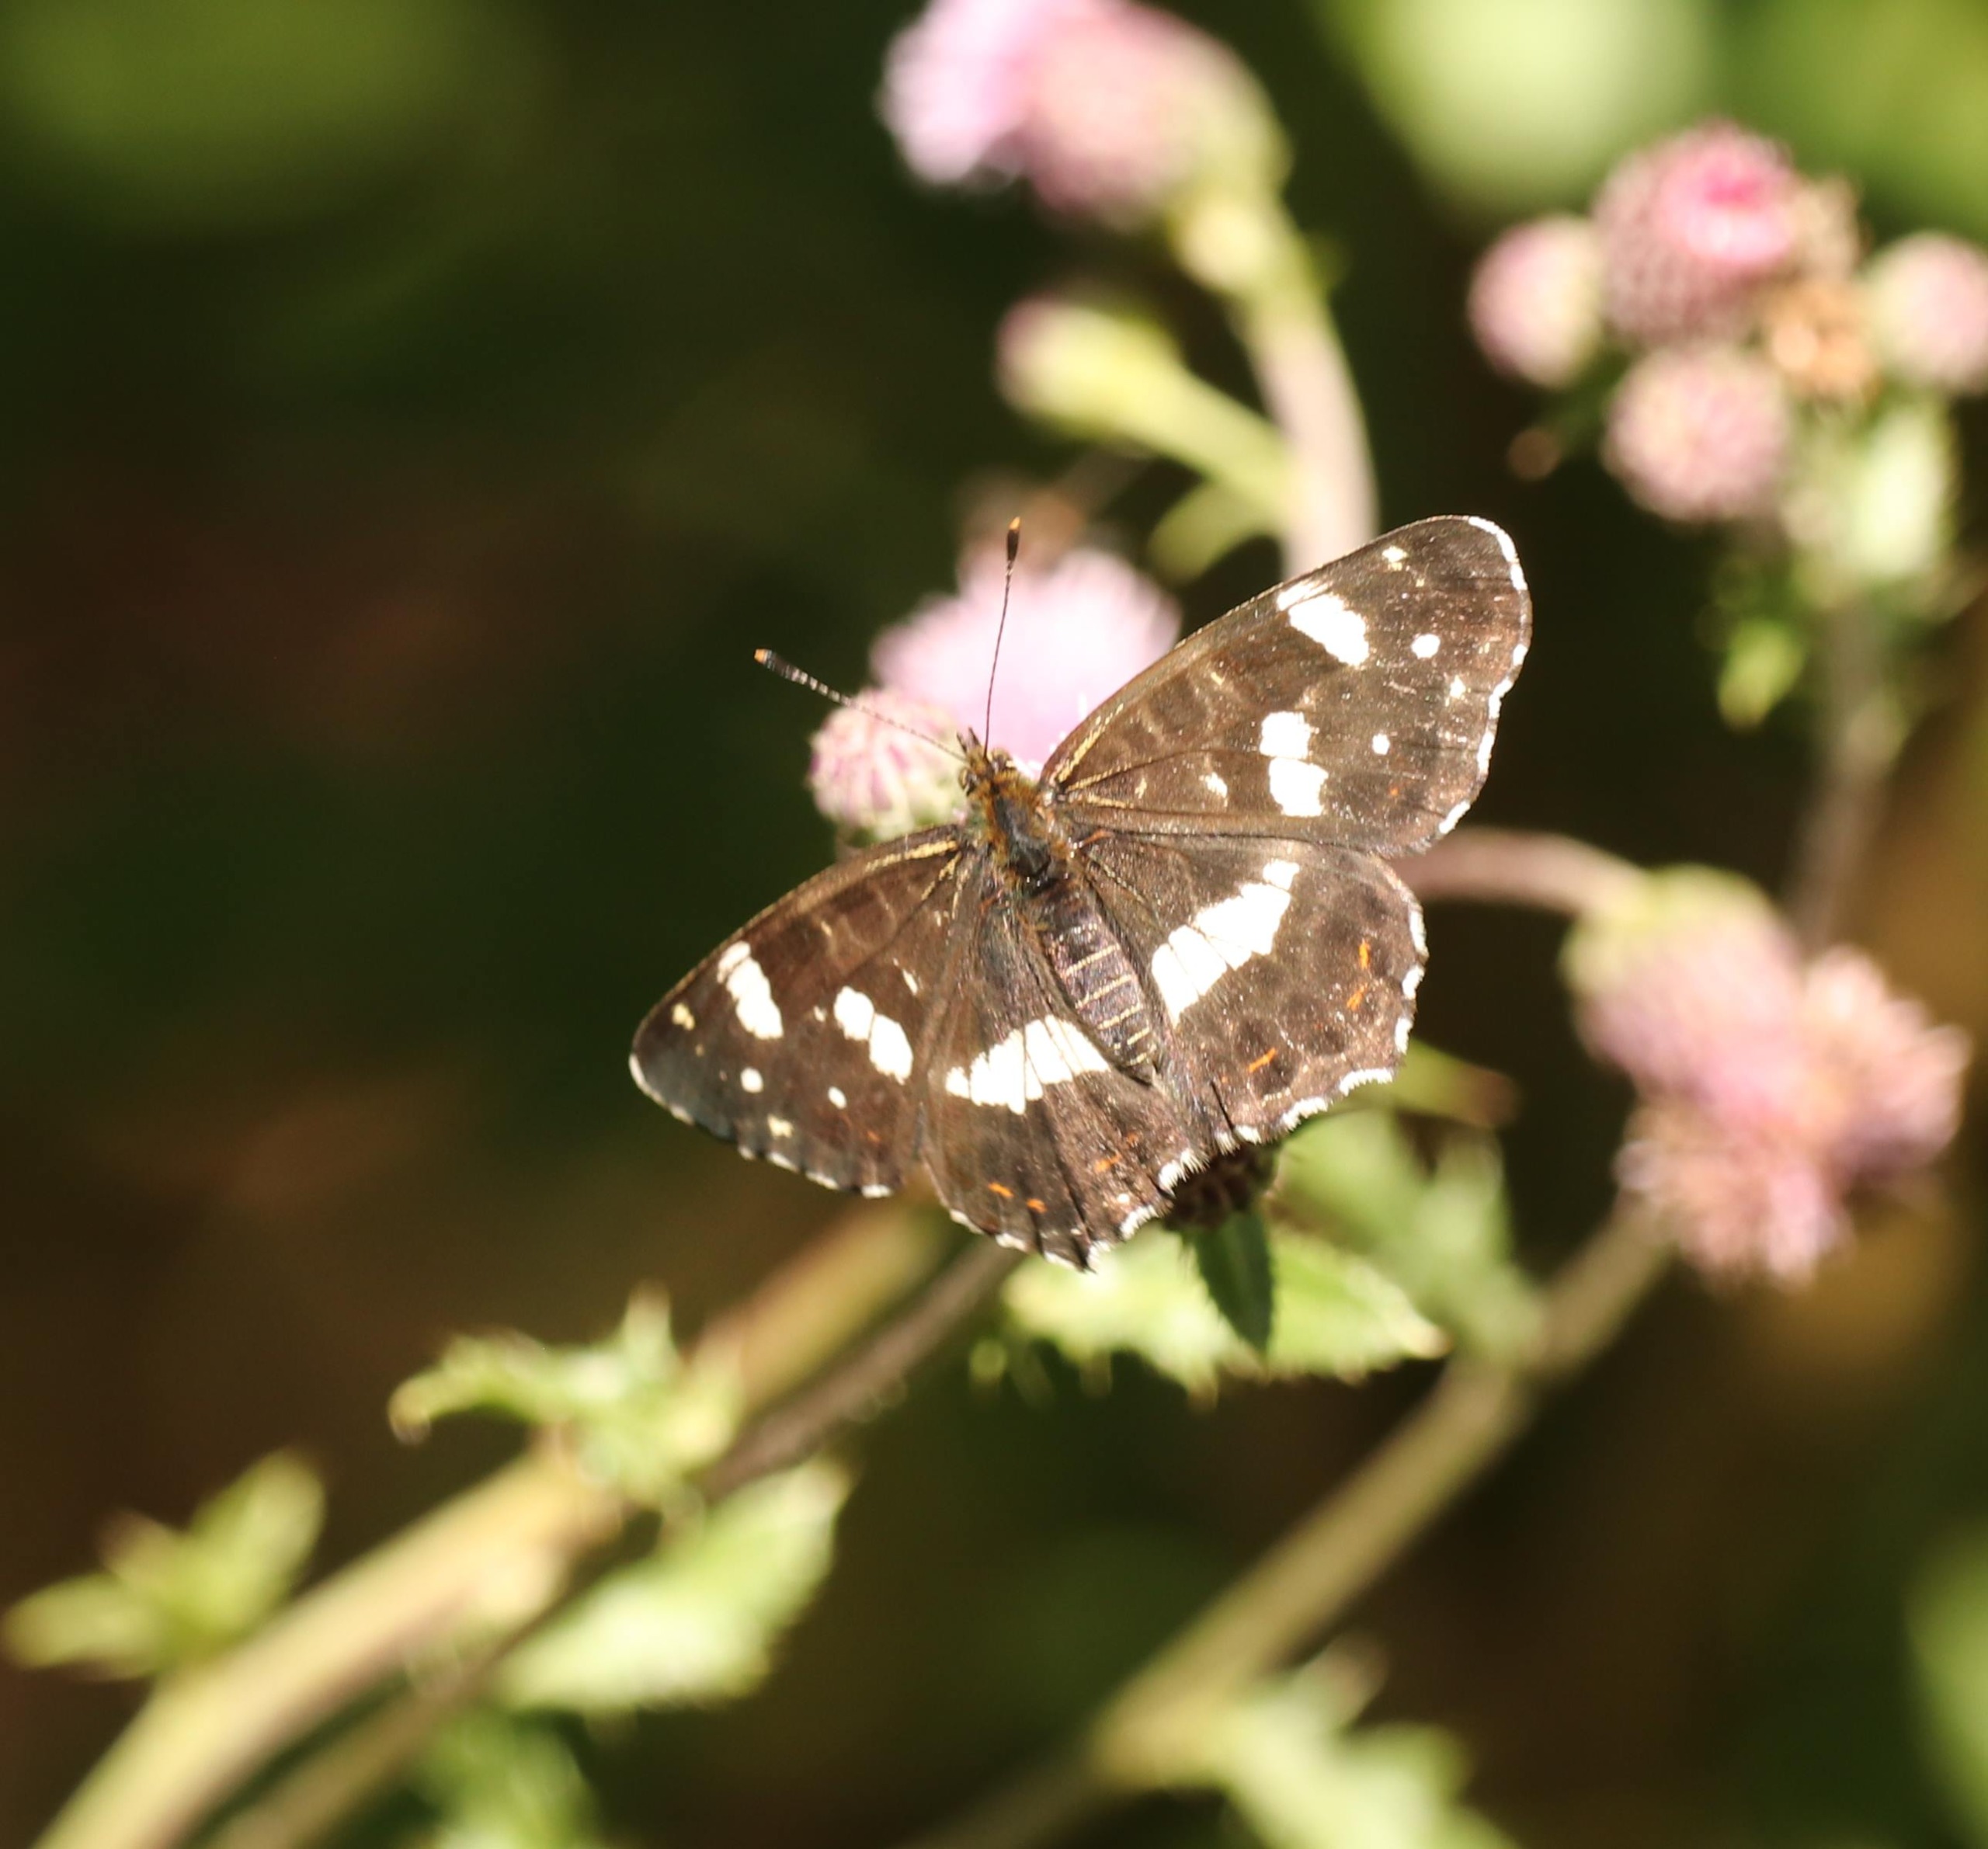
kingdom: Animalia
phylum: Arthropoda
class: Insecta
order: Lepidoptera
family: Nymphalidae
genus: Araschnia
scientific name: Araschnia levana
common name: Nældesommerfugl
